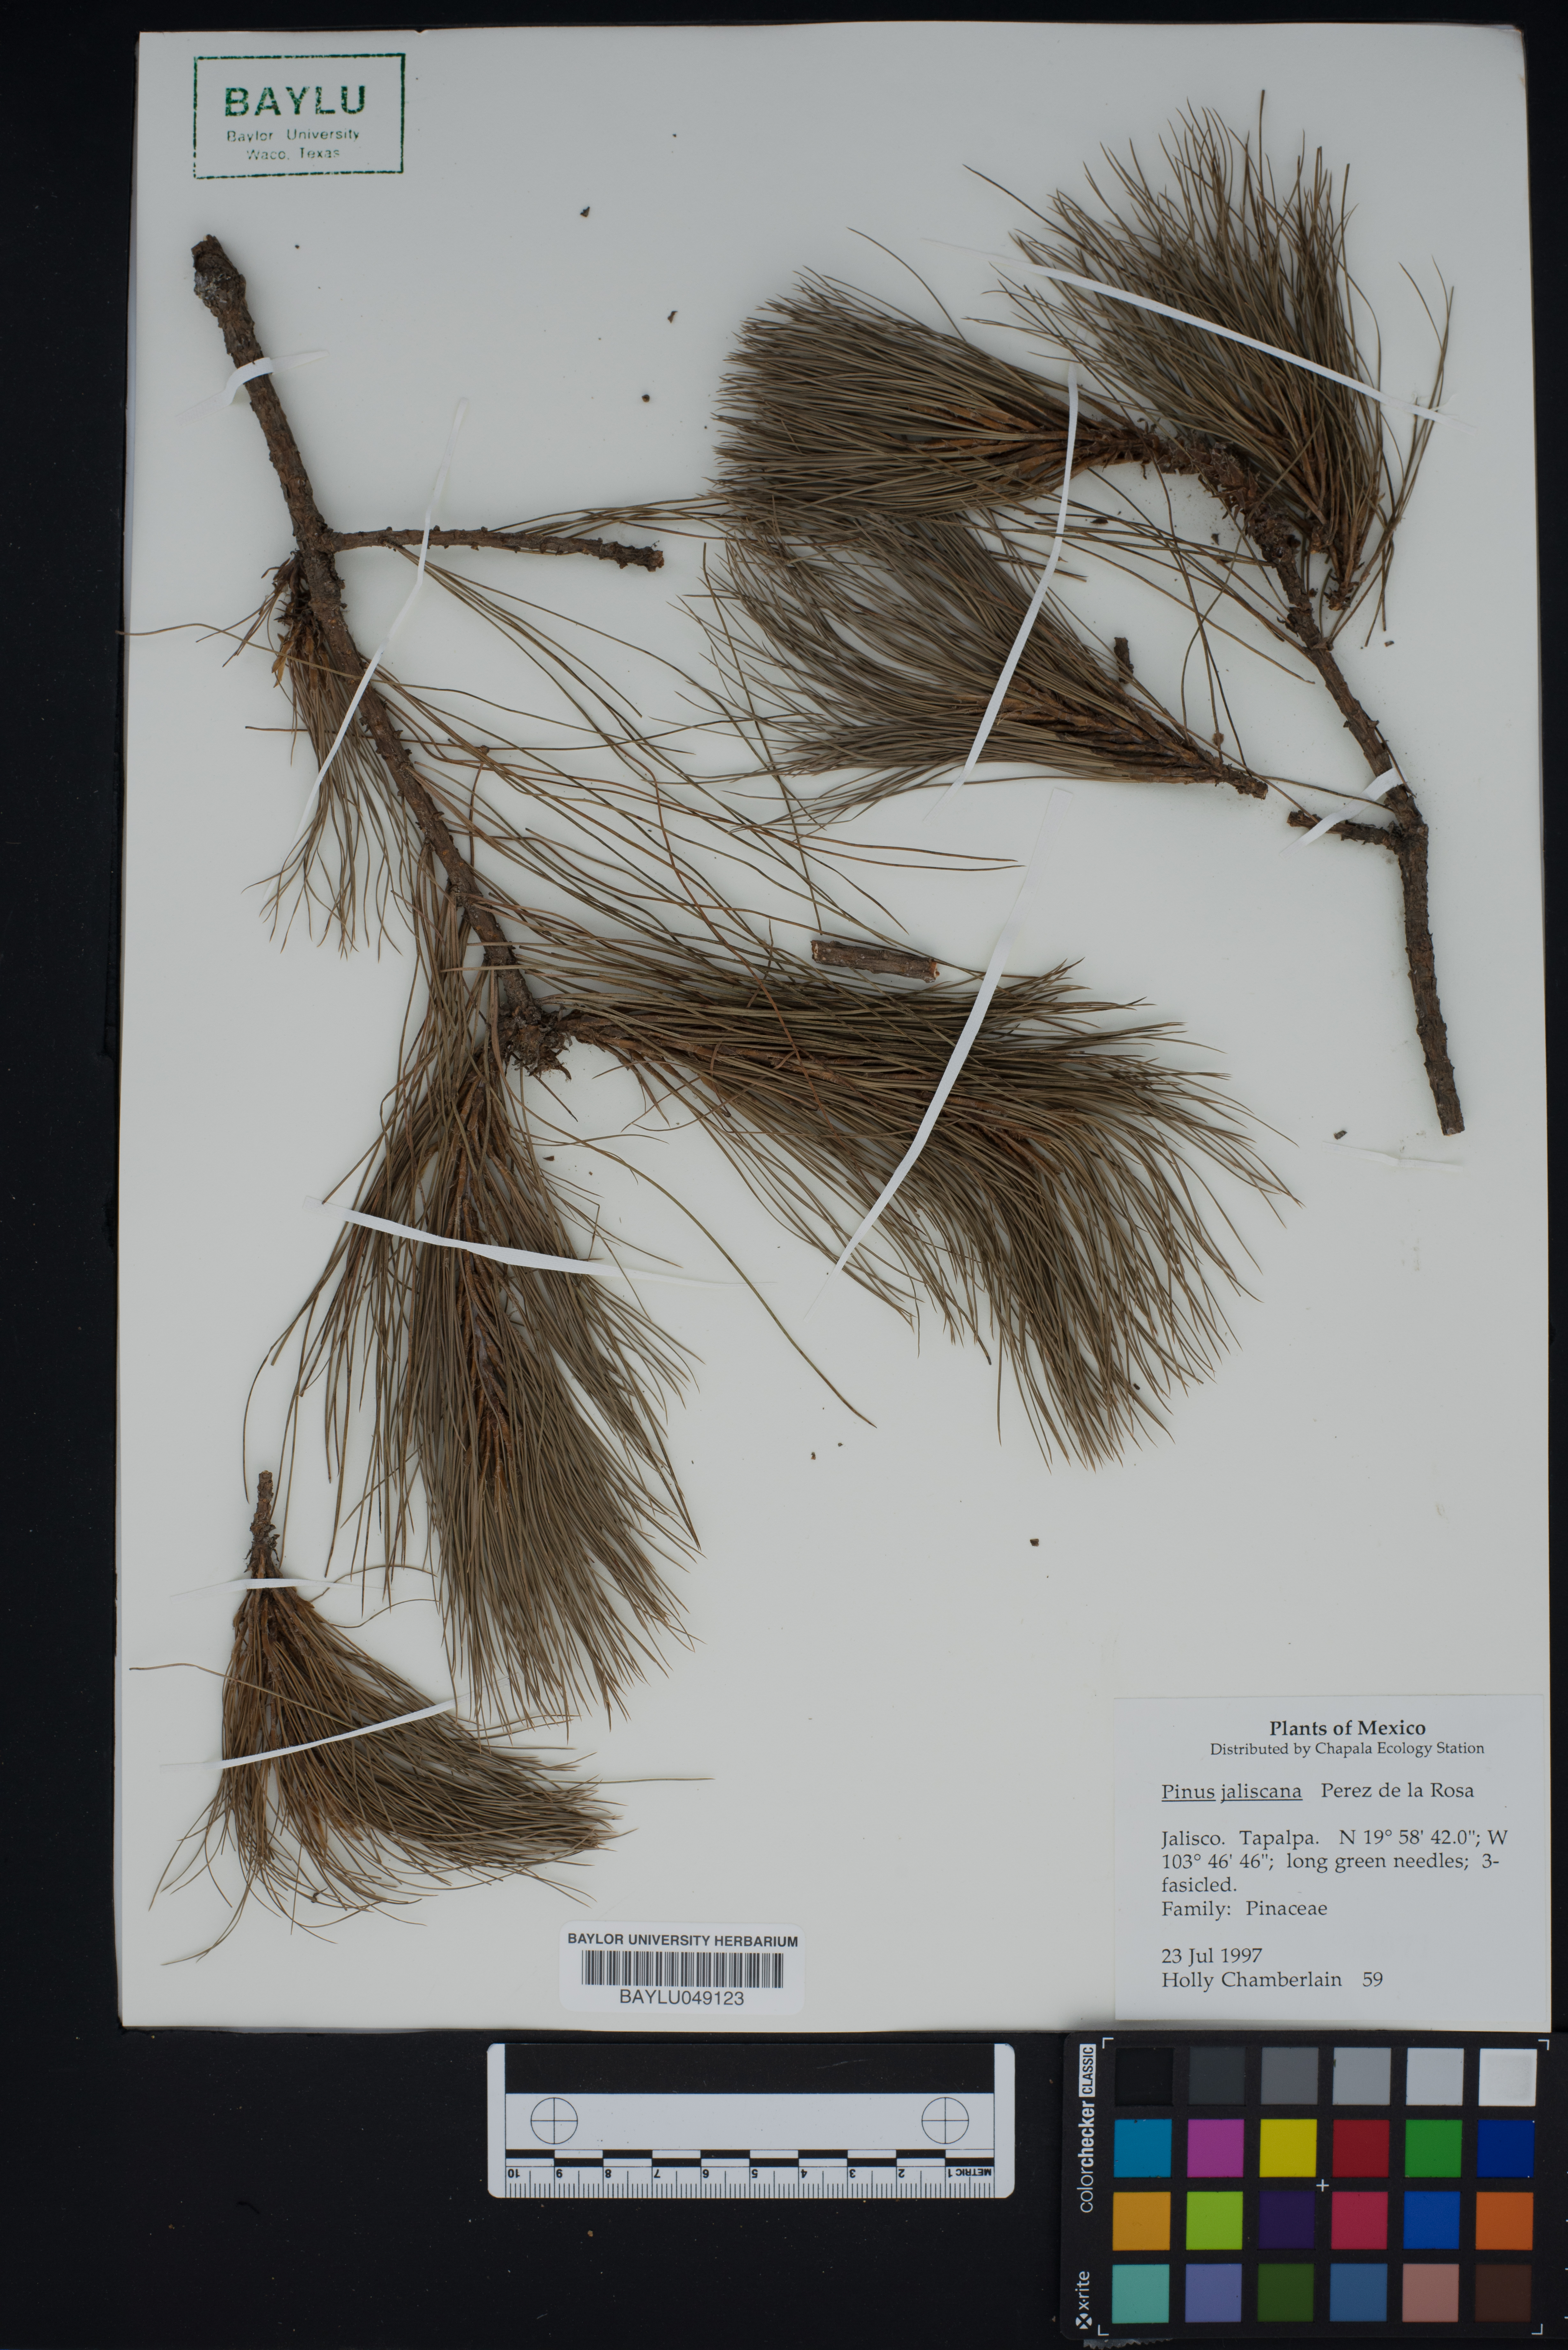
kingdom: Plantae
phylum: Tracheophyta
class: Pinopsida
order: Pinales
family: Pinaceae
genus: Pinus
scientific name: Pinus jaliscana
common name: Jalisco pine
